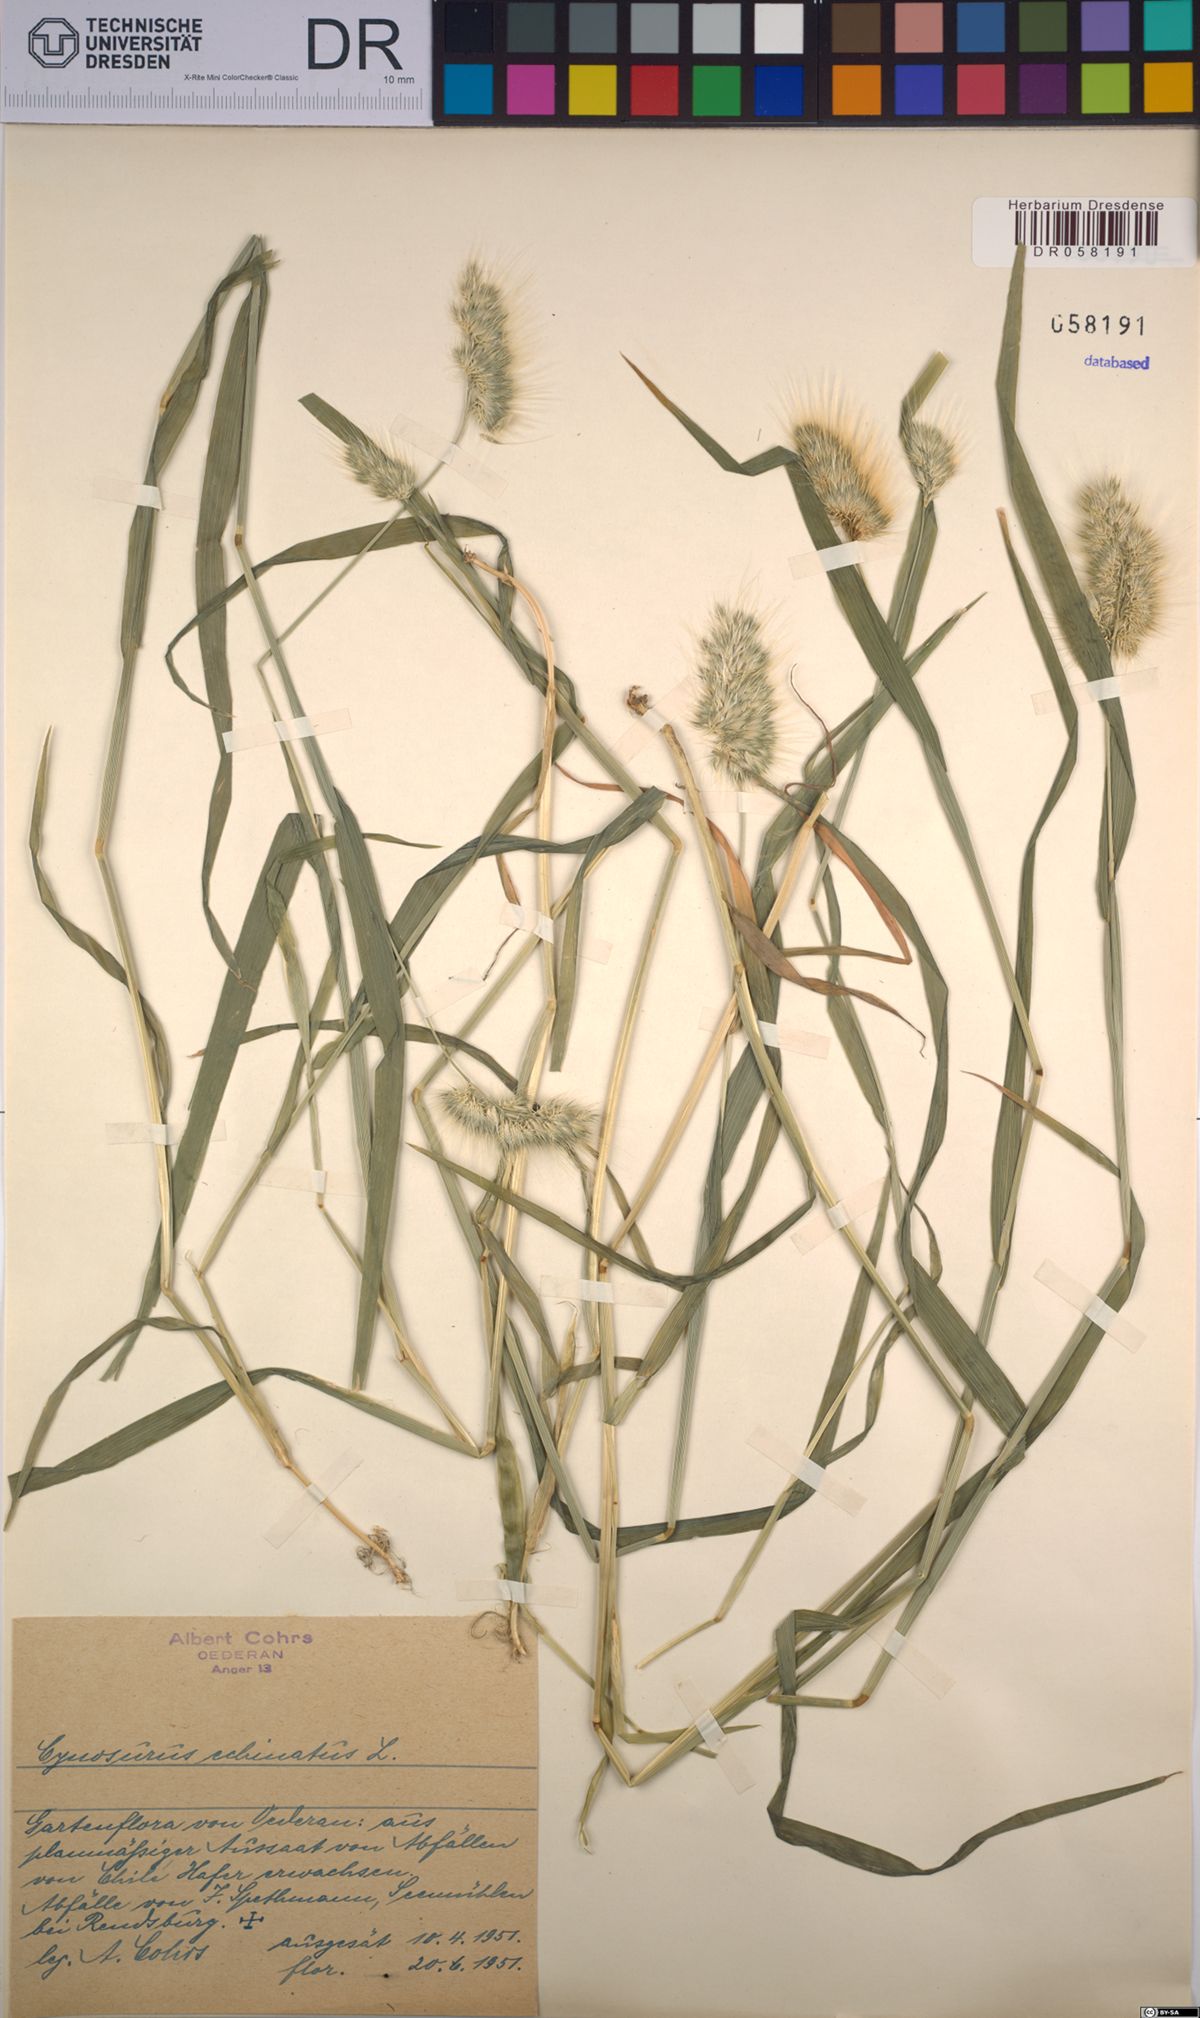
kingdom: Plantae
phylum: Tracheophyta
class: Liliopsida
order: Poales
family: Poaceae
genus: Cynosurus
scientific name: Cynosurus echinatus
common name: Rough dog's-tail
